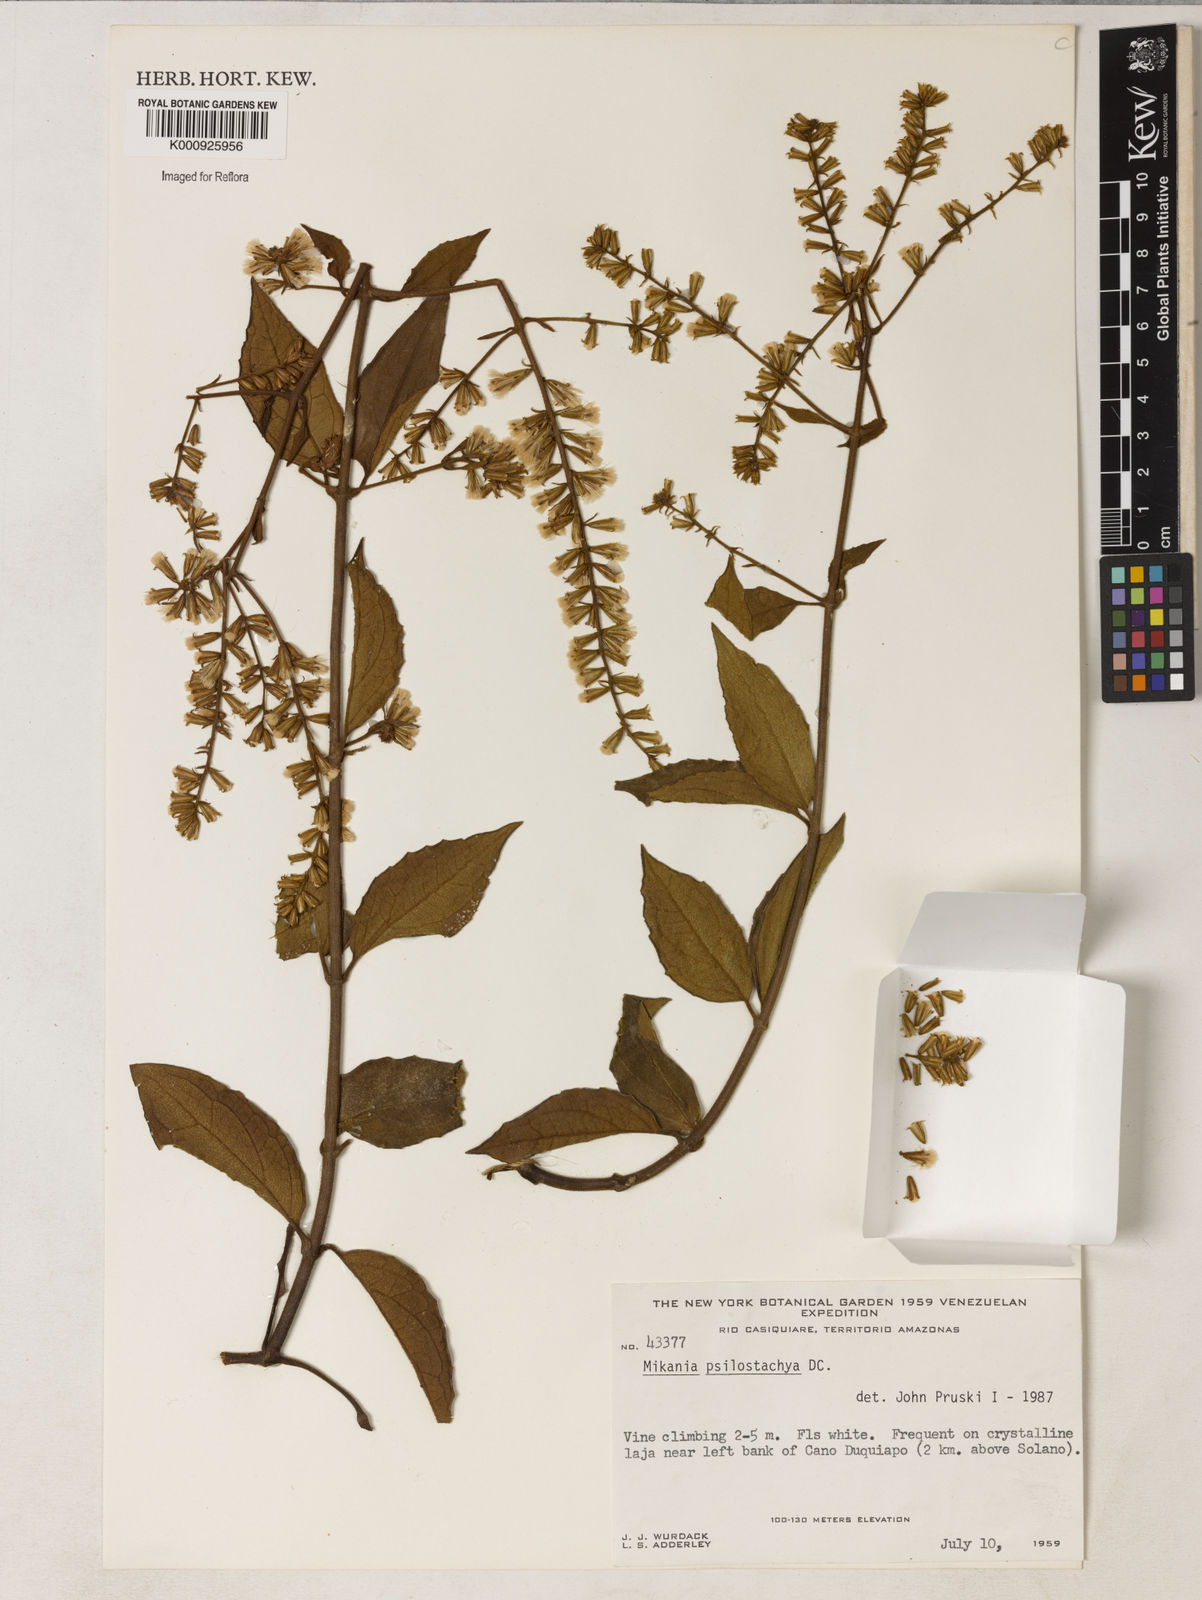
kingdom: Plantae
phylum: Tracheophyta
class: Magnoliopsida
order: Asterales
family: Asteraceae
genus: Mikania
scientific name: Mikania psilostachya
